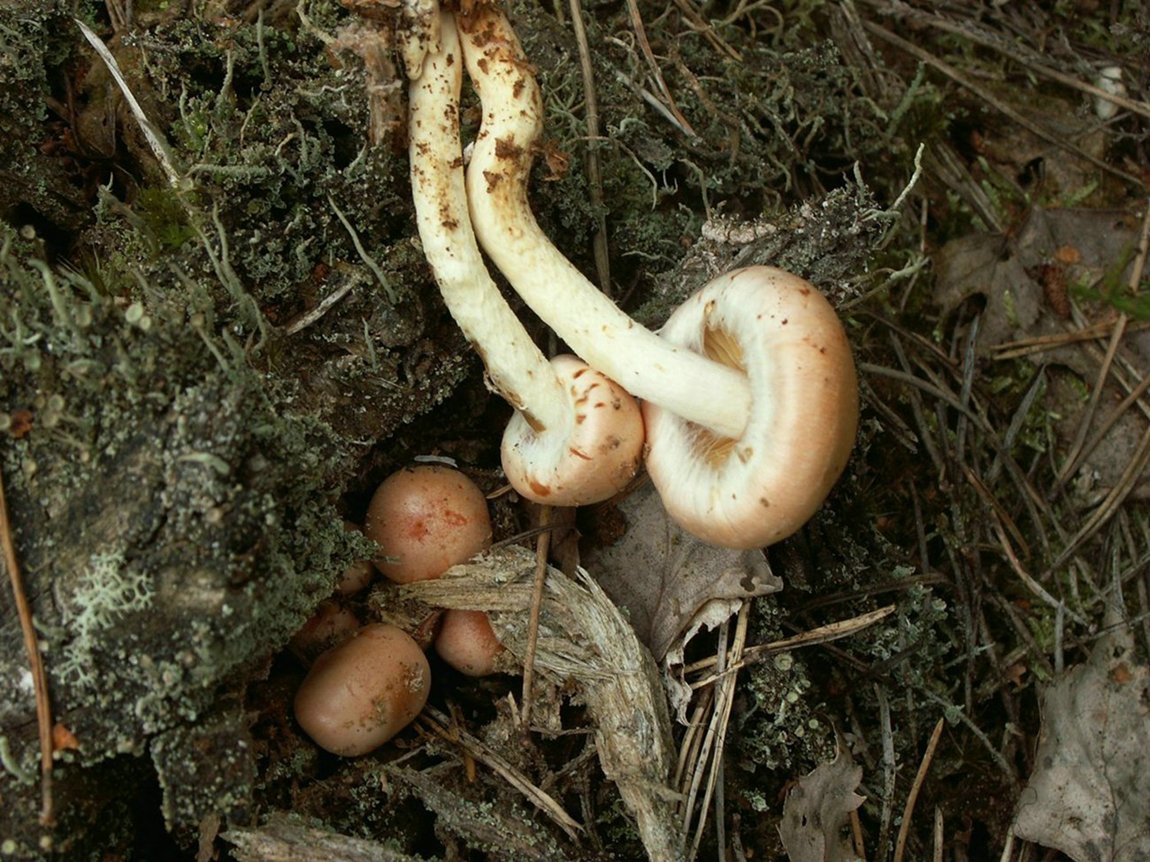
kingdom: Fungi
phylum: Basidiomycota
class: Agaricomycetes
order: Agaricales
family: Strophariaceae
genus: Pyrrhulomyces
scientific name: Pyrrhulomyces astragalinus
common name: safran-skælhat
